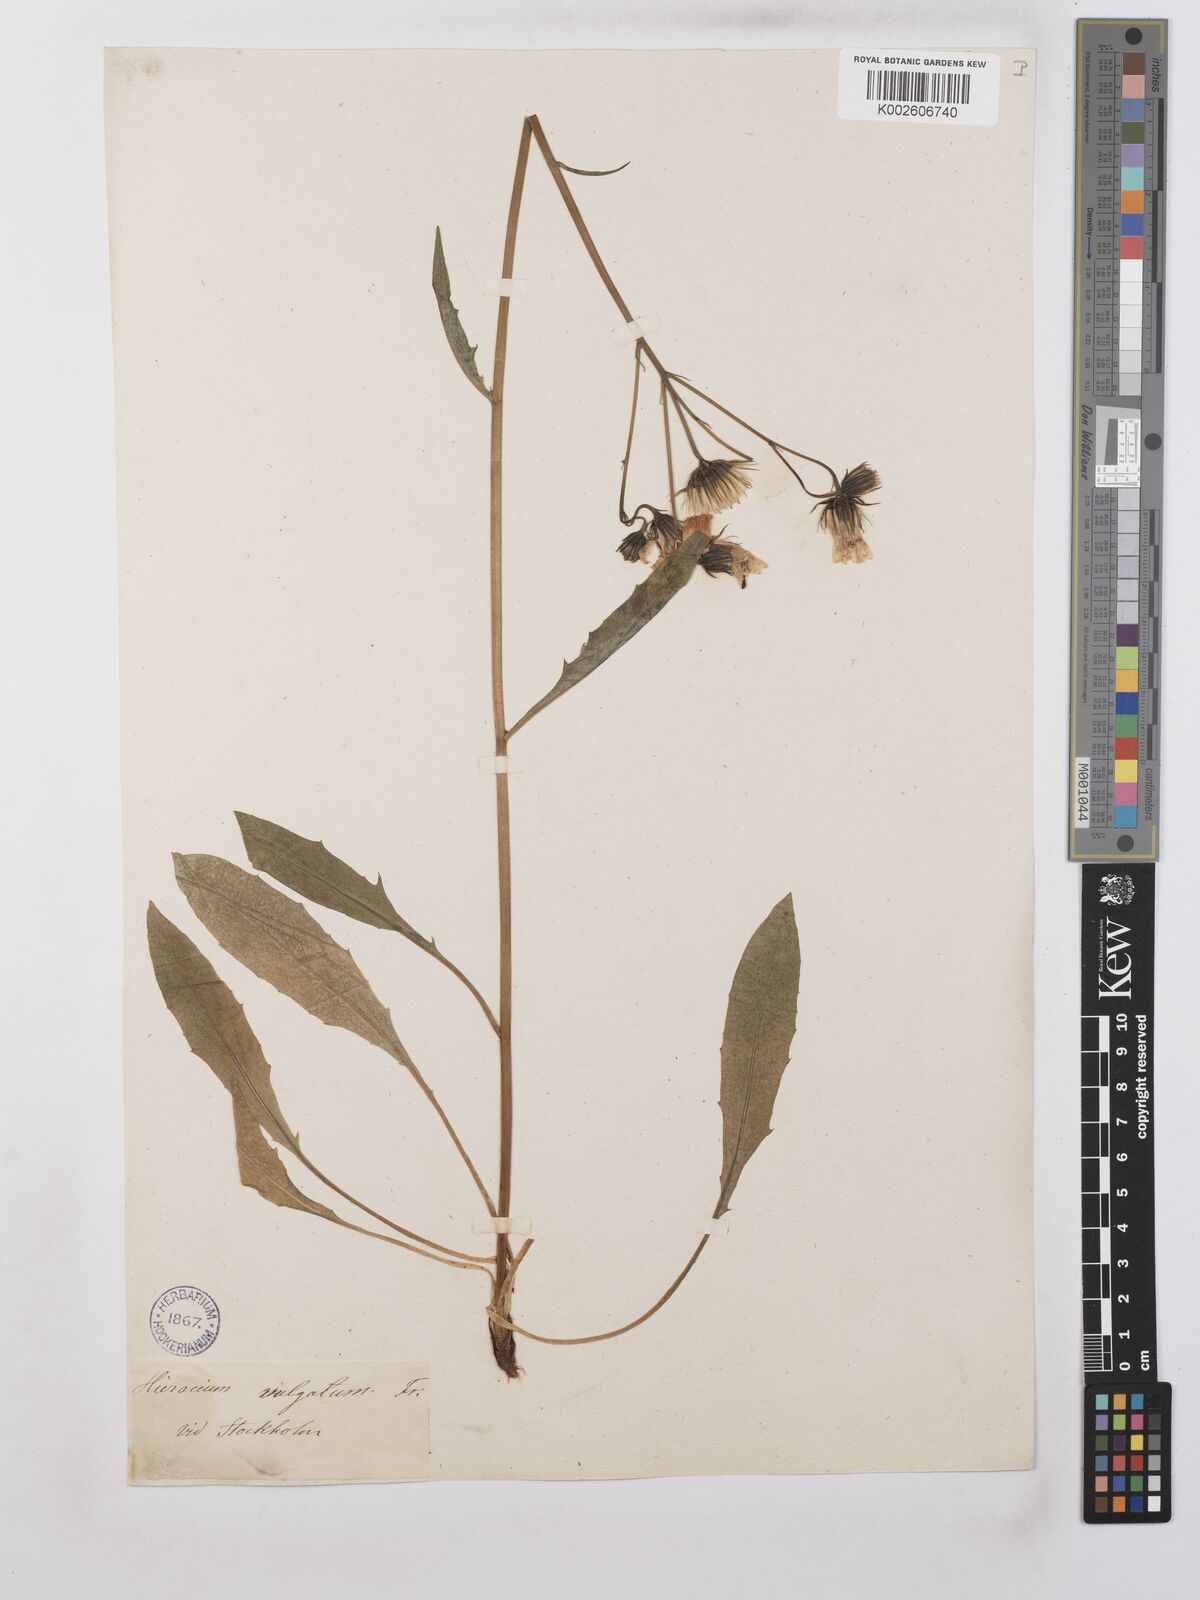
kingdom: Plantae
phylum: Tracheophyta
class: Magnoliopsida
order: Asterales
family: Asteraceae
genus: Hieracium
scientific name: Hieracium lachenalii
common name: Common hawkweed
